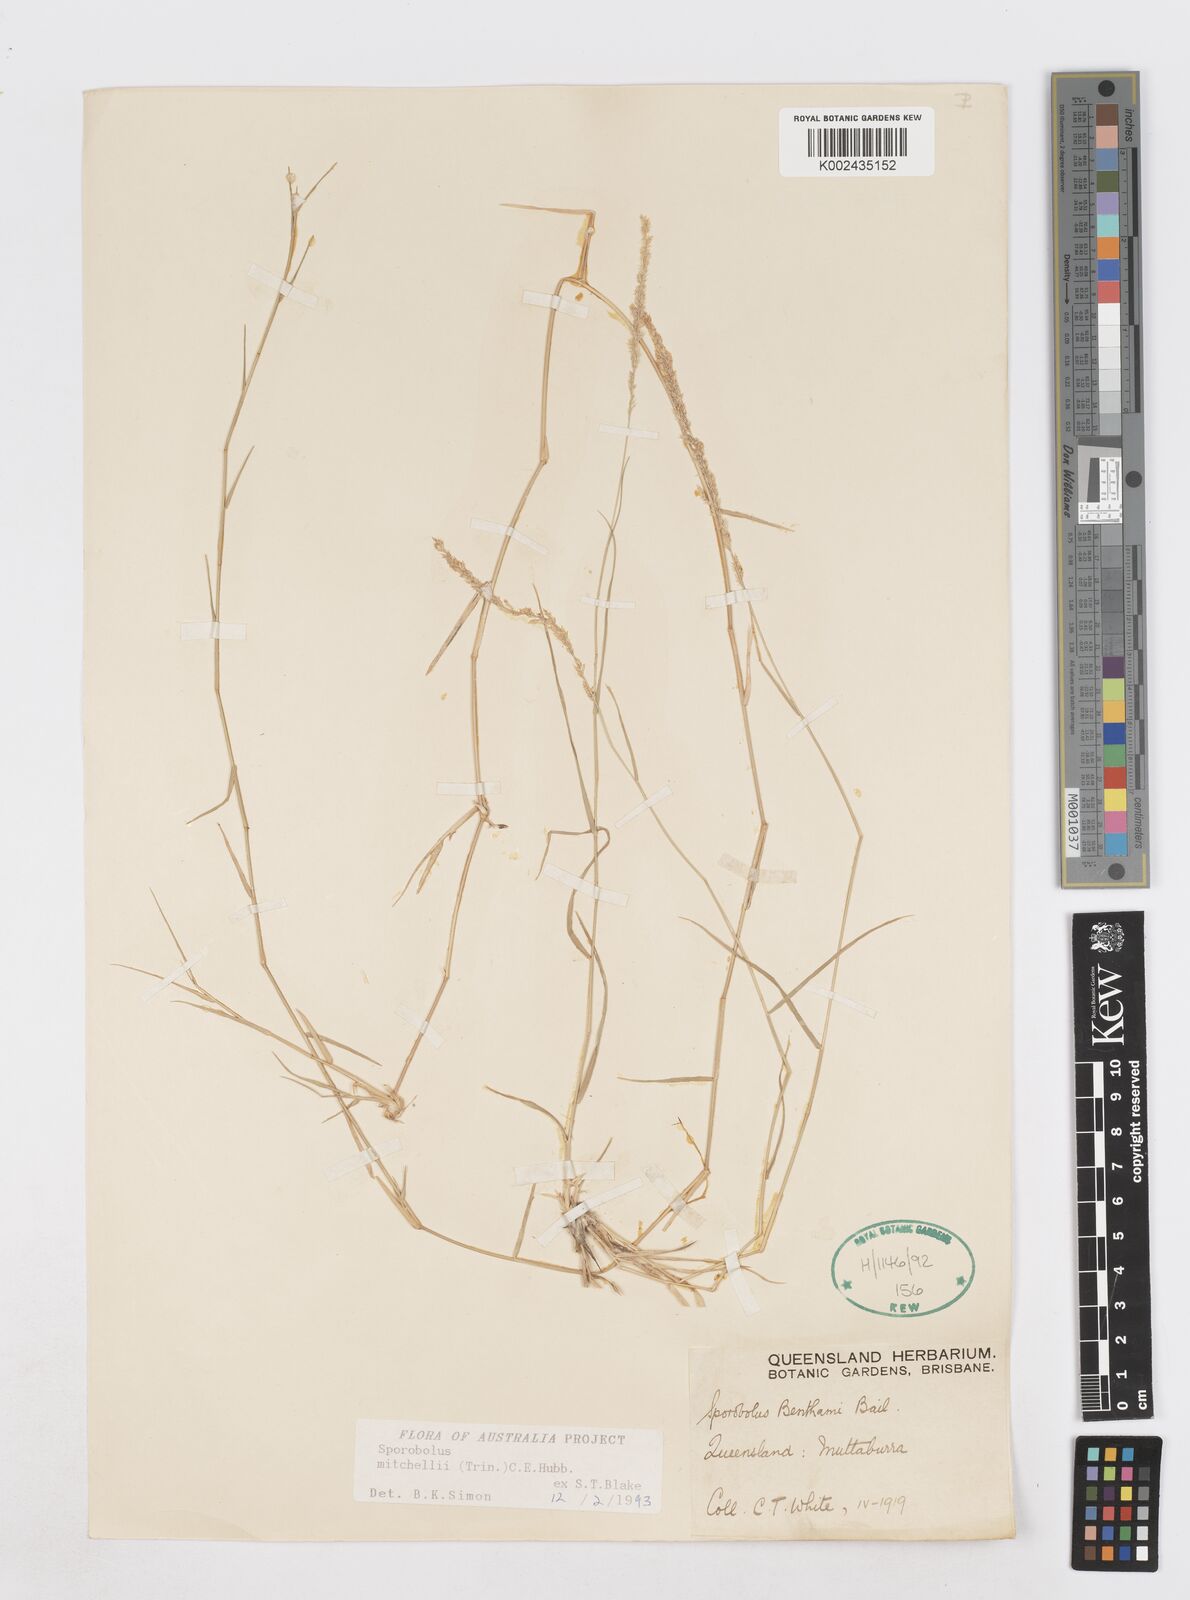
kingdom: Plantae
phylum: Tracheophyta
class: Liliopsida
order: Poales
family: Poaceae
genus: Sporobolus
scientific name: Sporobolus mitchellii
